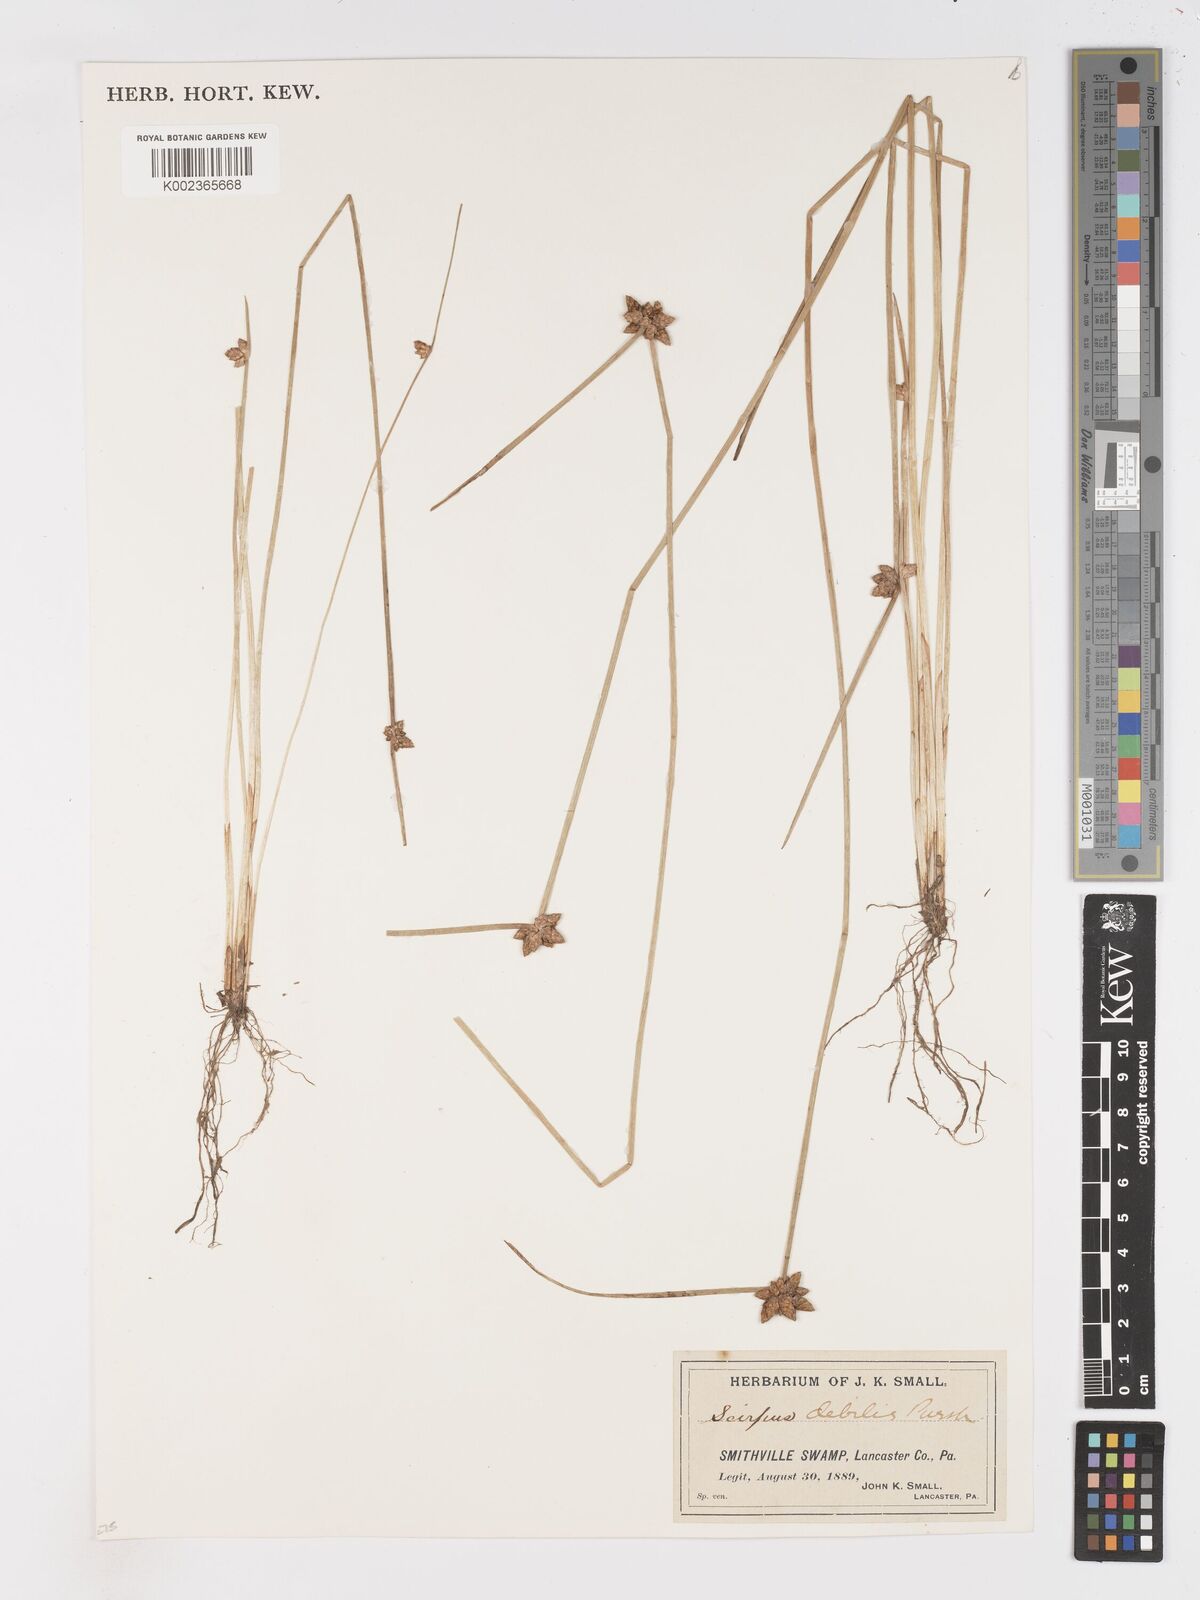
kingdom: Plantae
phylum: Tracheophyta
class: Liliopsida
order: Poales
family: Cyperaceae
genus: Schoenoplectiella
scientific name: Schoenoplectiella purshiana
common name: Weak-stalked bulrush
